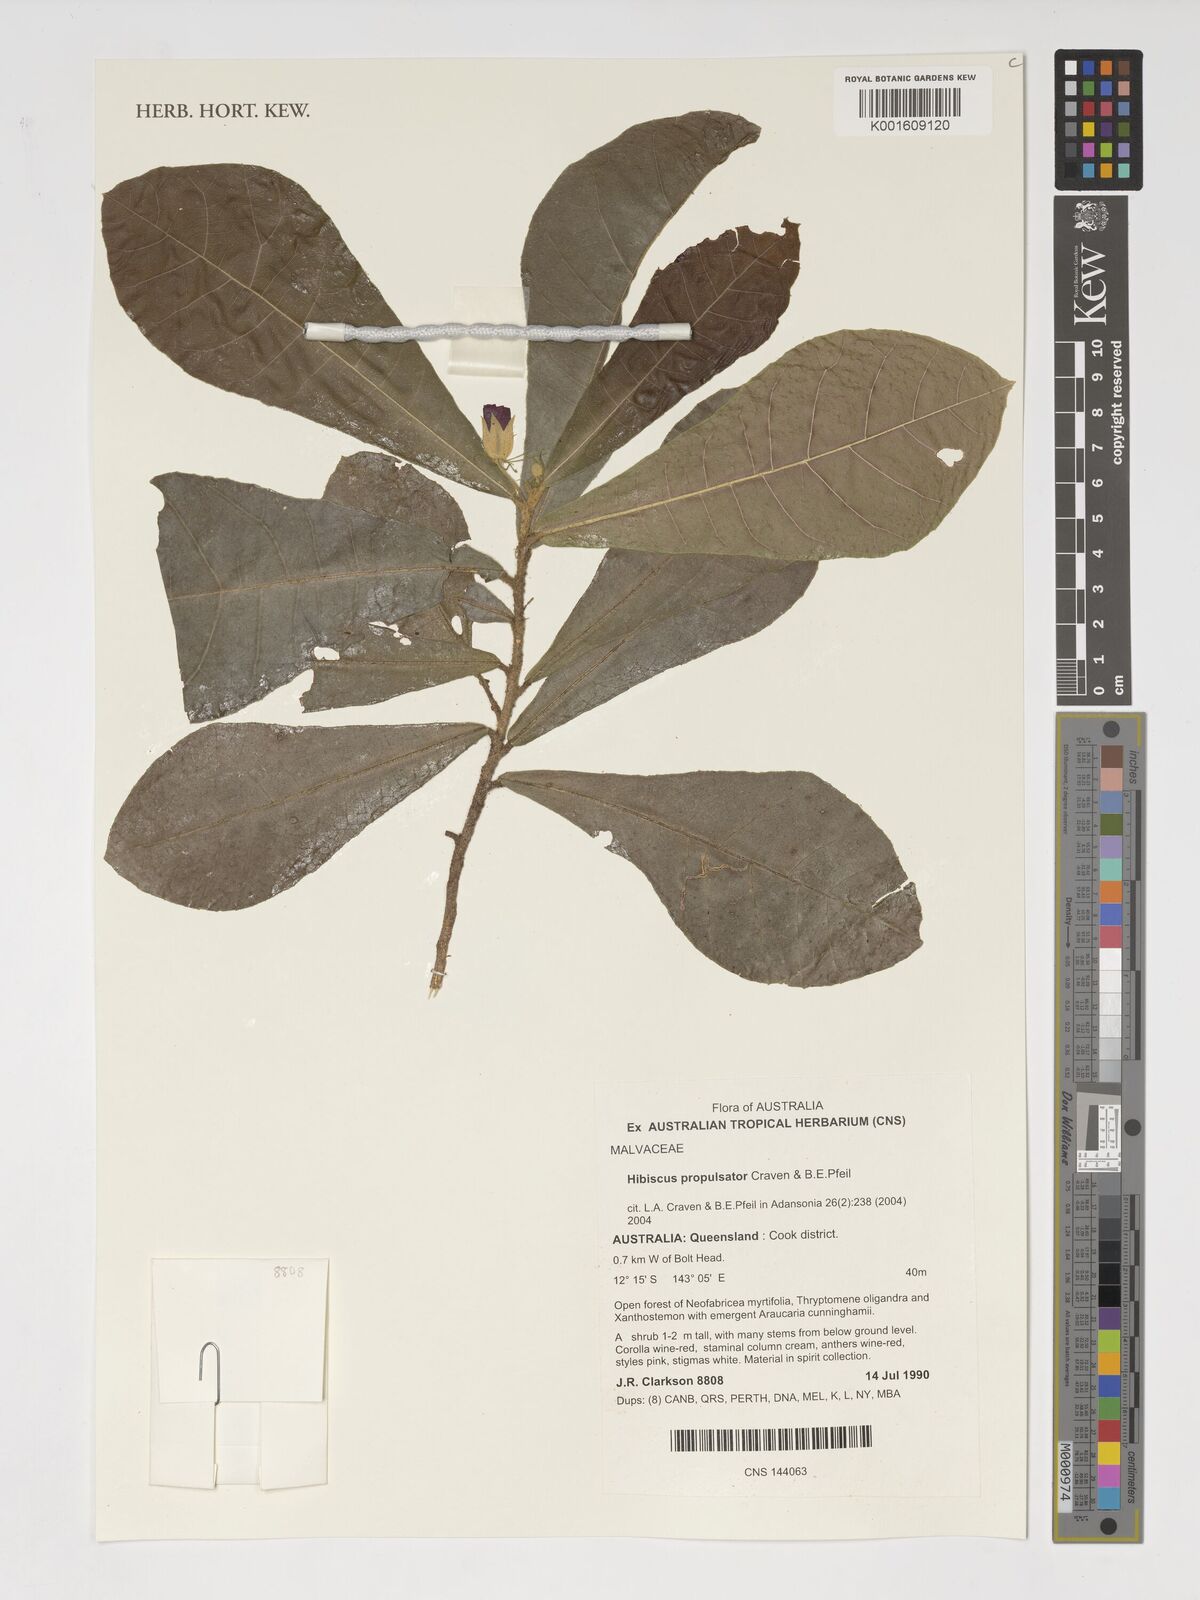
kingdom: Plantae
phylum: Tracheophyta
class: Magnoliopsida
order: Malvales
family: Malvaceae
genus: Hibiscus
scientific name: Hibiscus propulsator
